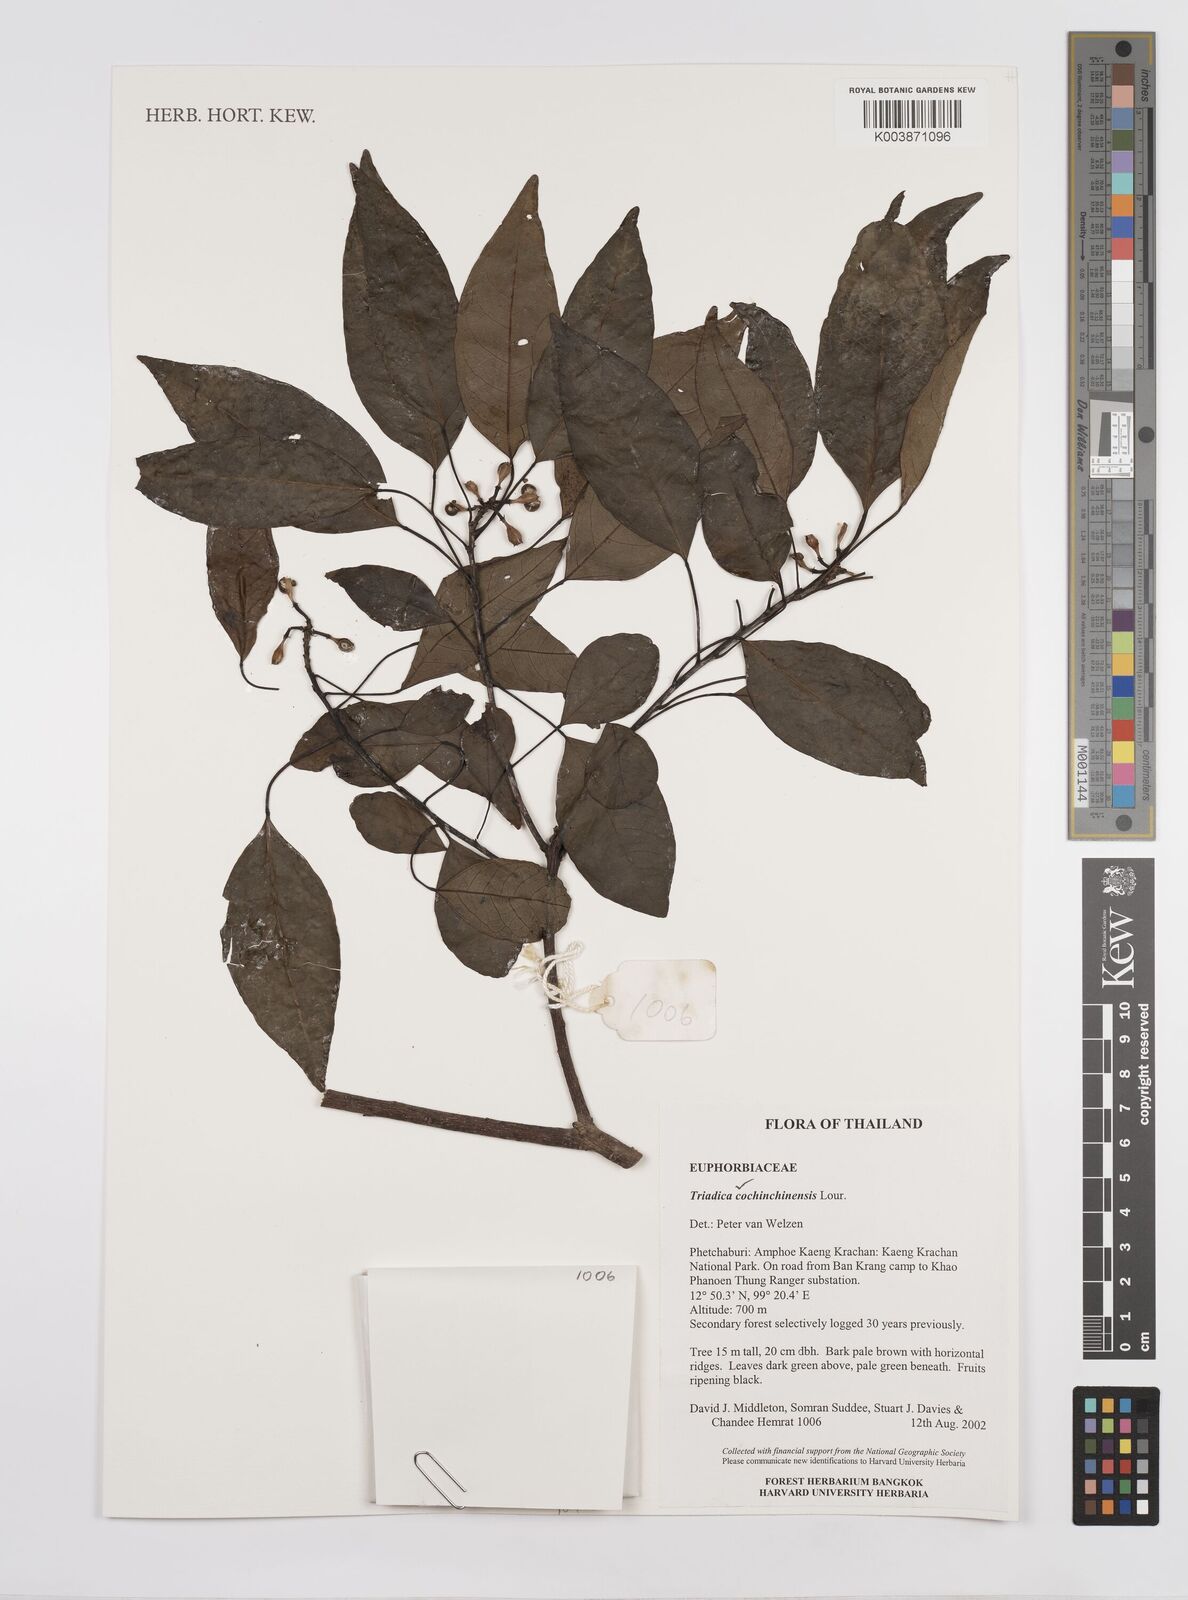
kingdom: Plantae
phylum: Tracheophyta
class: Magnoliopsida
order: Malpighiales
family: Euphorbiaceae
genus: Triadica
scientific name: Triadica cochinchinensis
